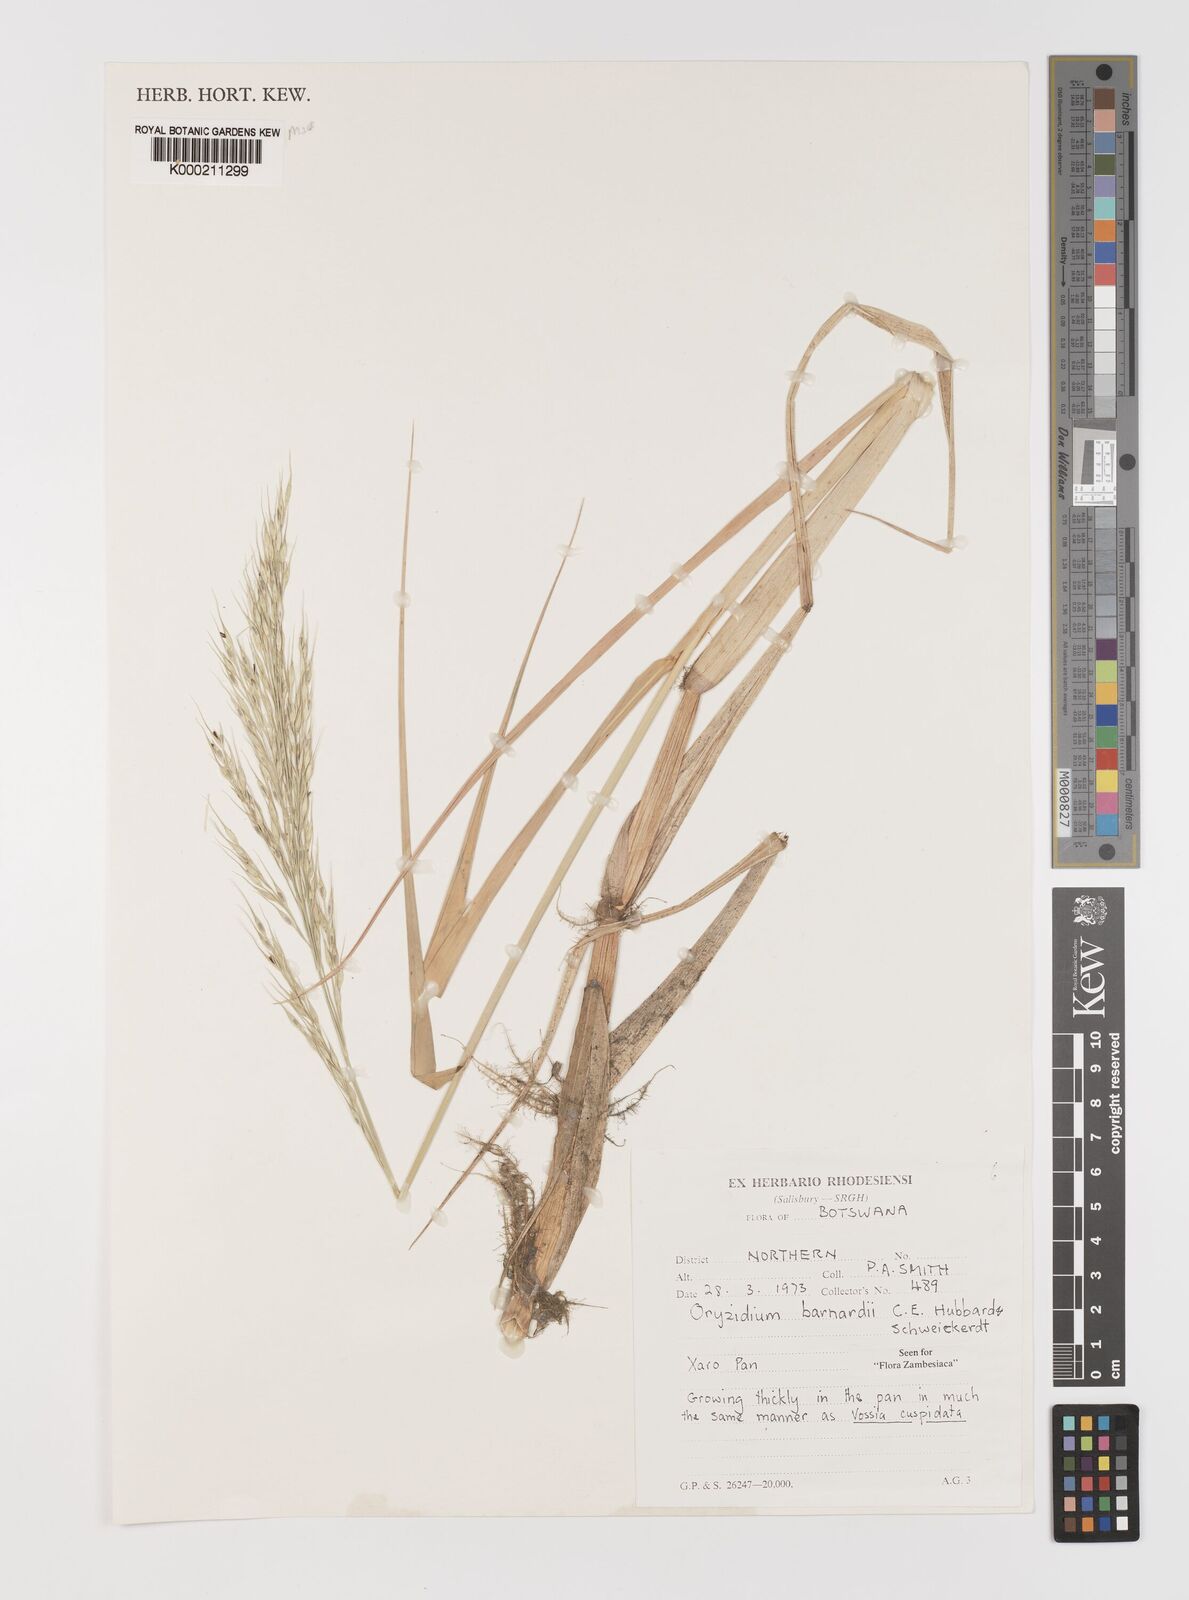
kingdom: Plantae
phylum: Tracheophyta
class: Liliopsida
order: Poales
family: Poaceae
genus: Oryzidium
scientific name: Oryzidium barnardii
